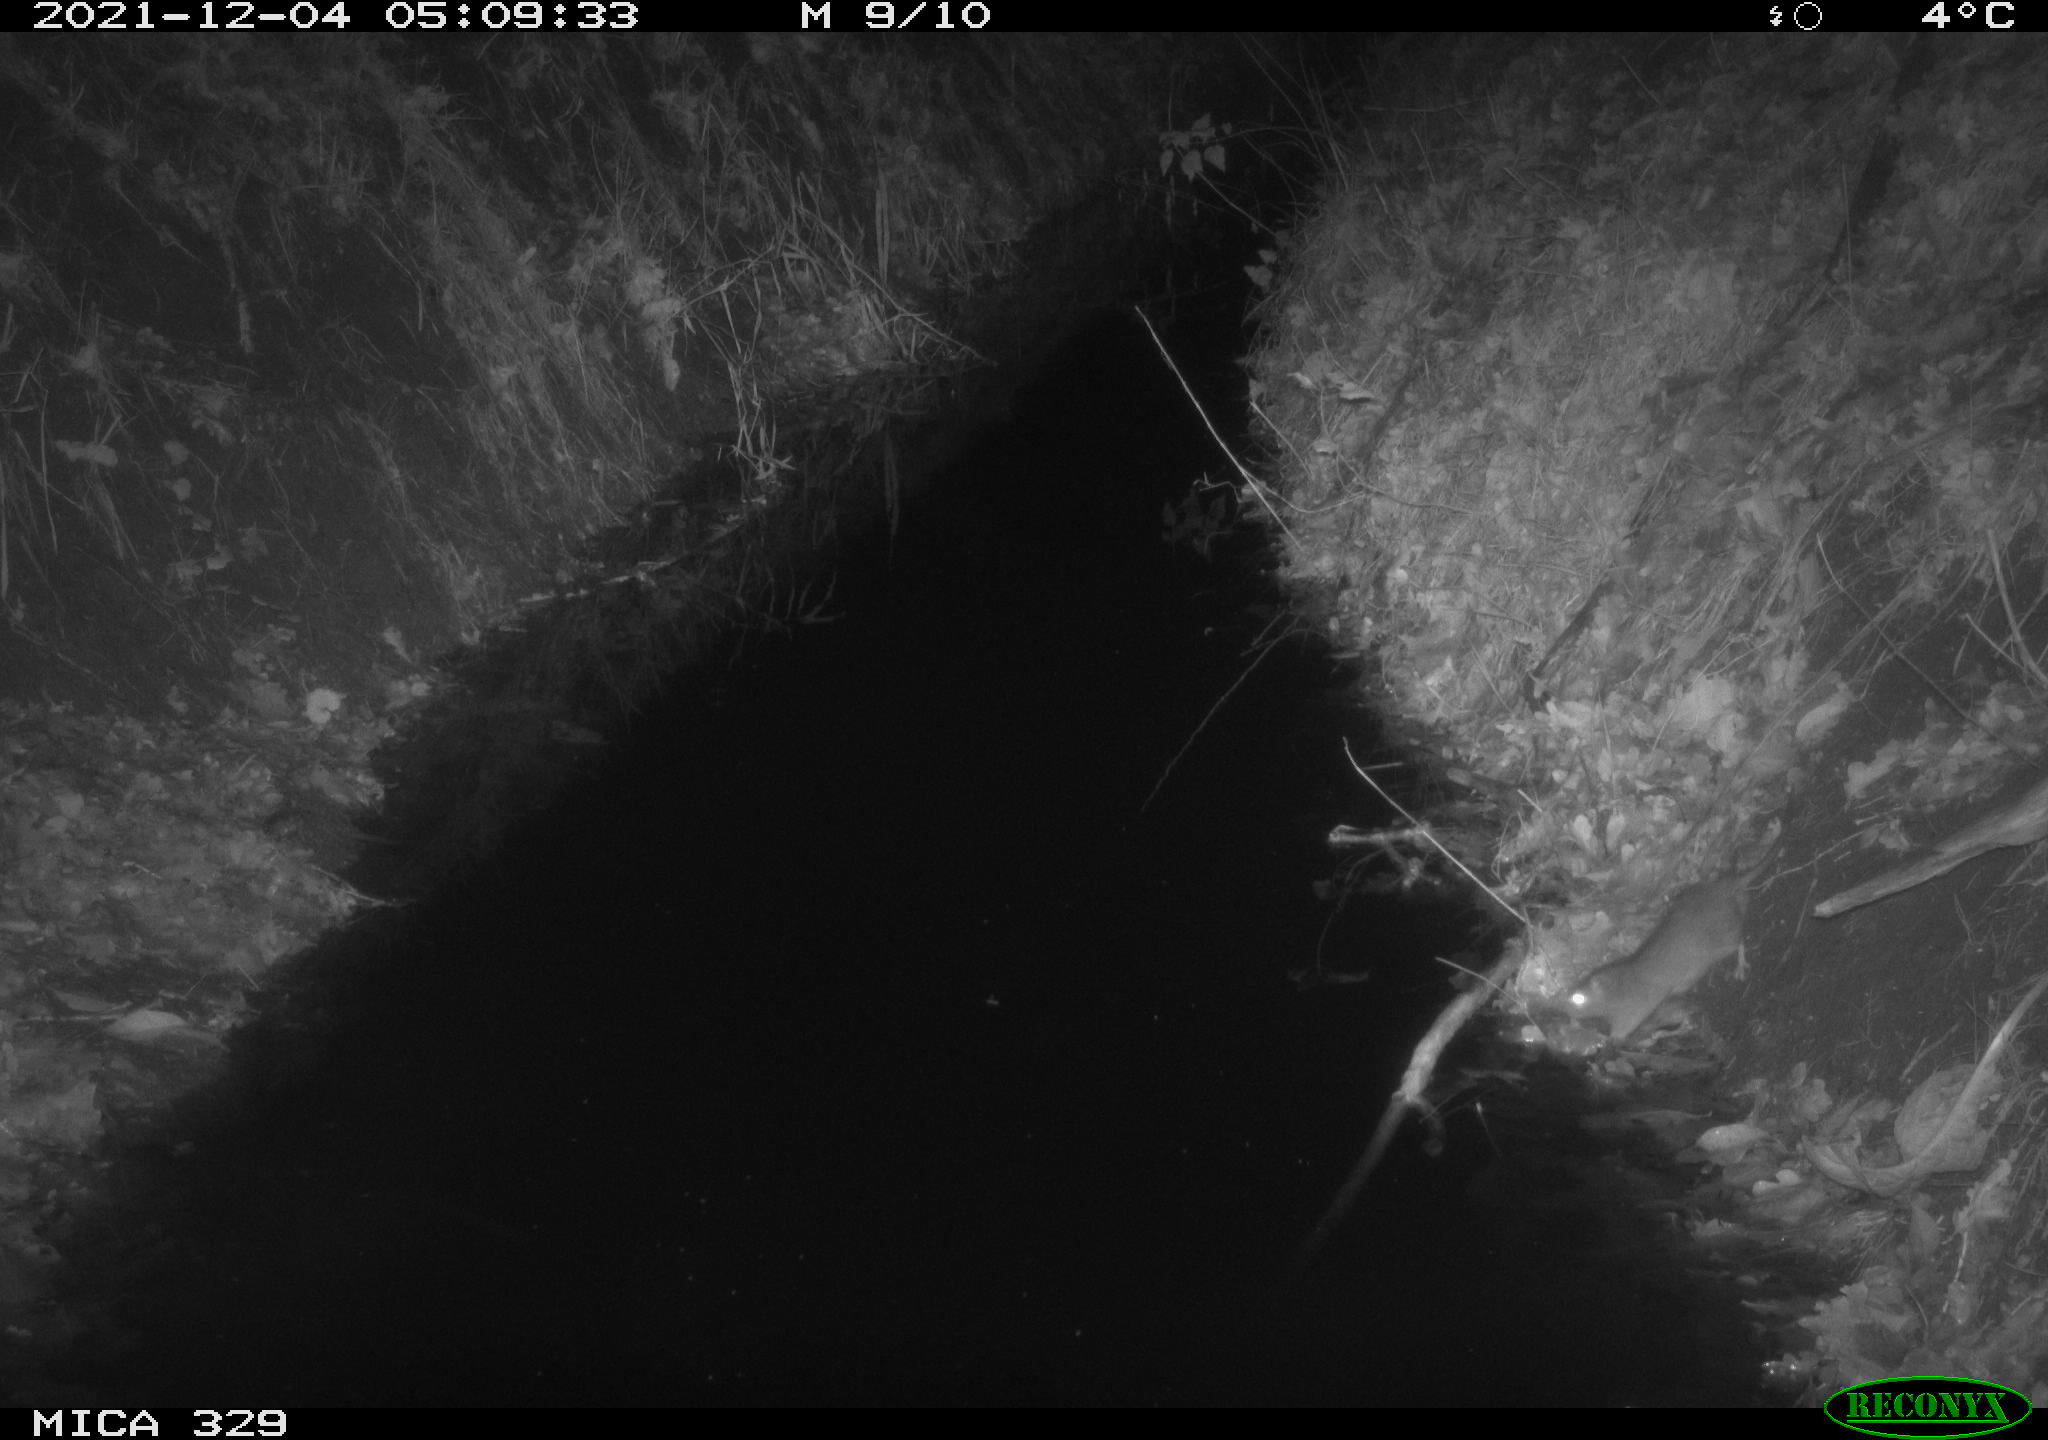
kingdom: Animalia
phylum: Chordata
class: Mammalia
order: Rodentia
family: Muridae
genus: Rattus
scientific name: Rattus norvegicus
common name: Brown rat
